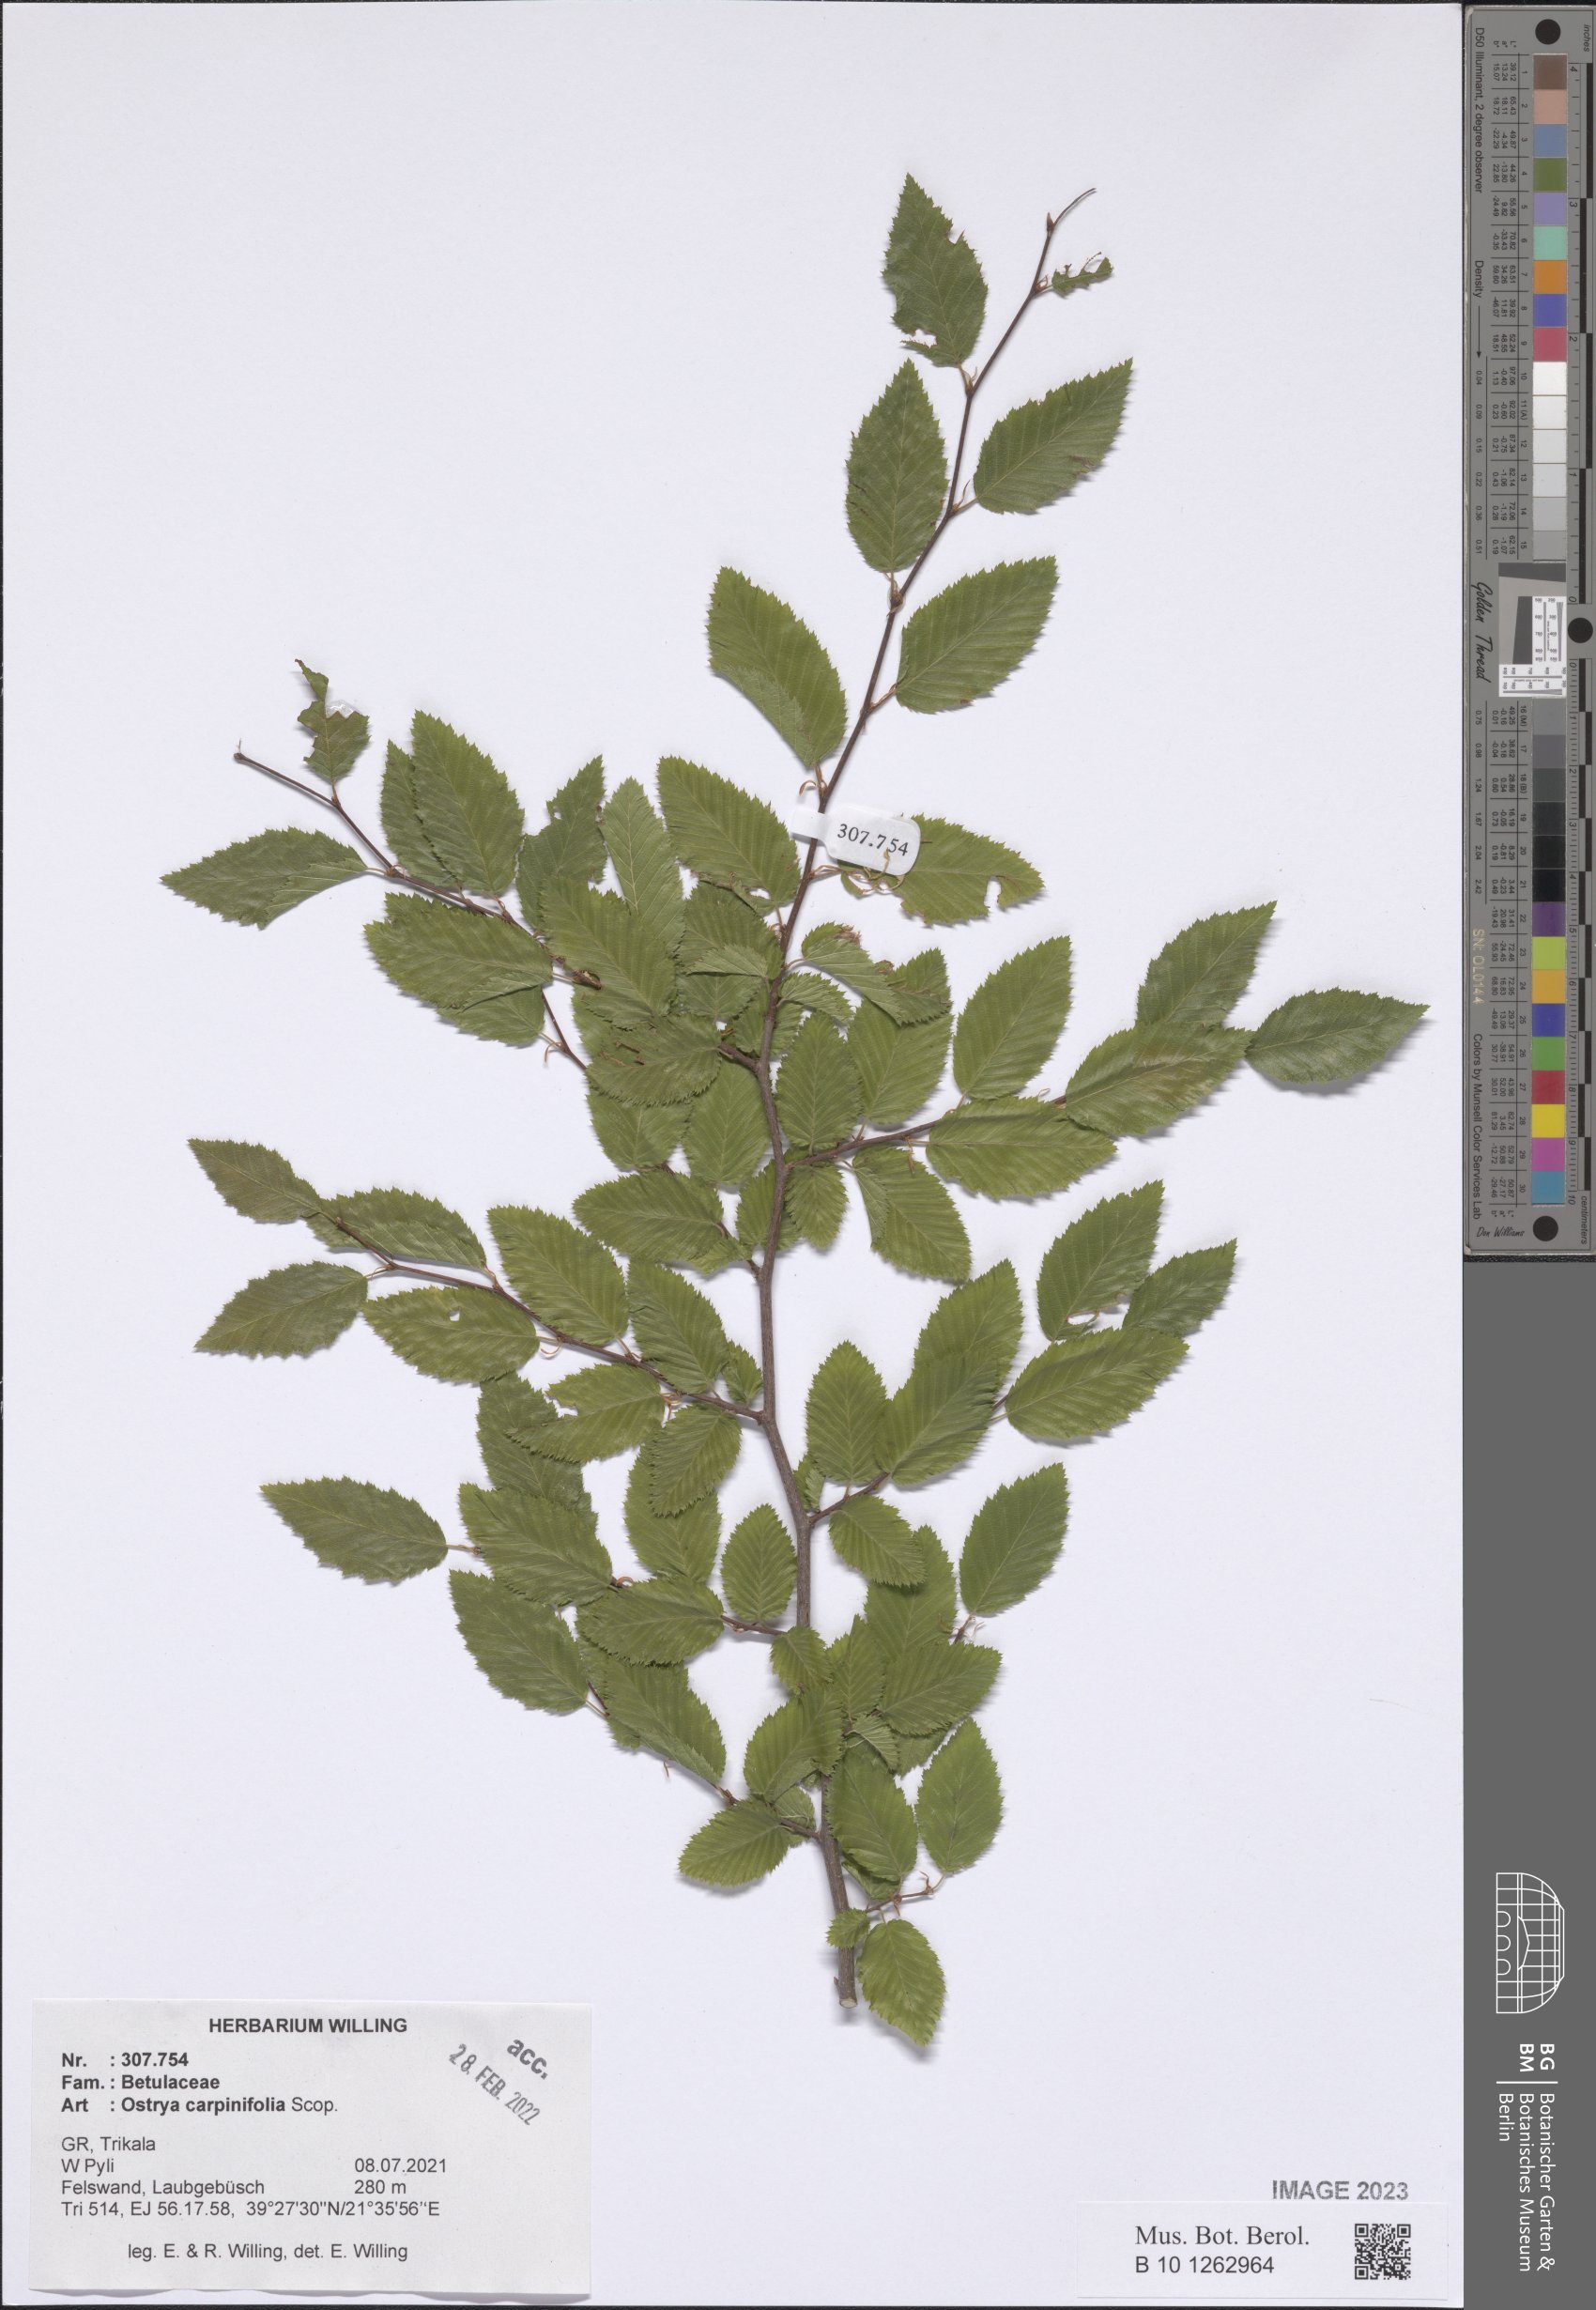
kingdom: Plantae
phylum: Tracheophyta
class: Magnoliopsida
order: Fagales
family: Betulaceae
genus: Ostrya
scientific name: Ostrya carpinifolia
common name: European hop-hornbeam
